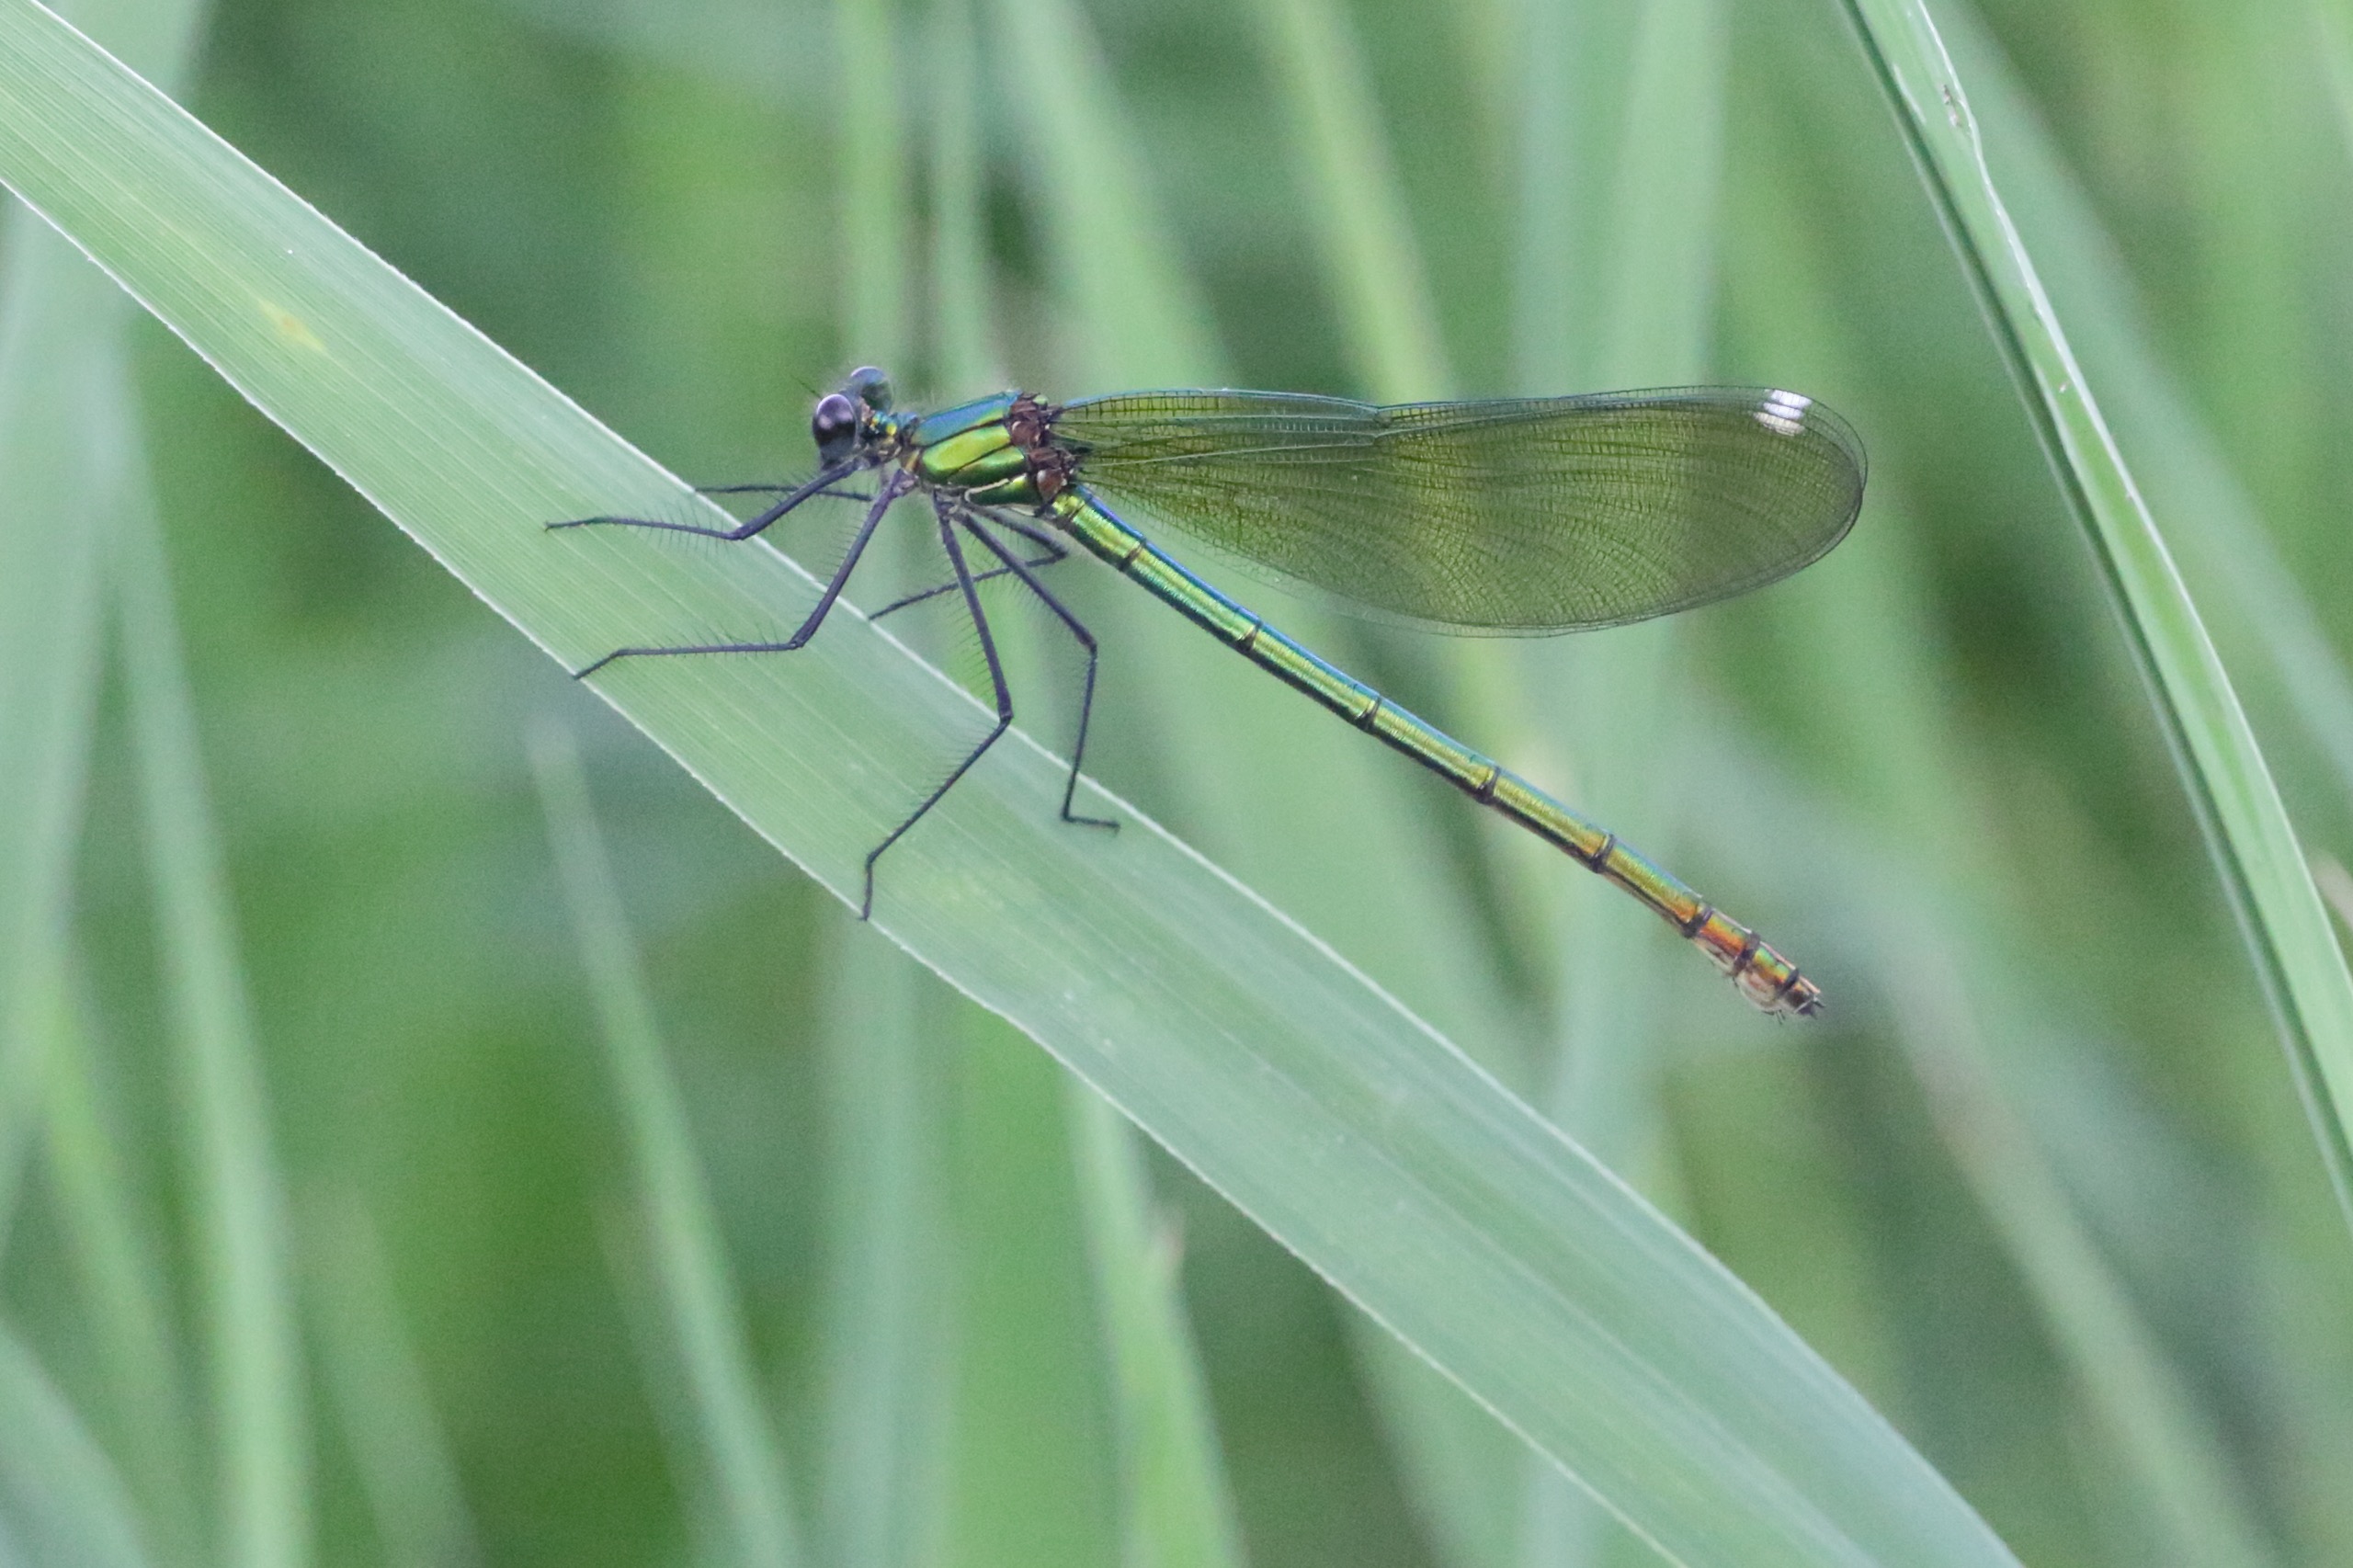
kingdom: Animalia
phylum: Arthropoda
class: Insecta
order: Odonata
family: Calopterygidae
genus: Calopteryx
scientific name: Calopteryx splendens
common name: Blåbåndet pragtvandnymfe
